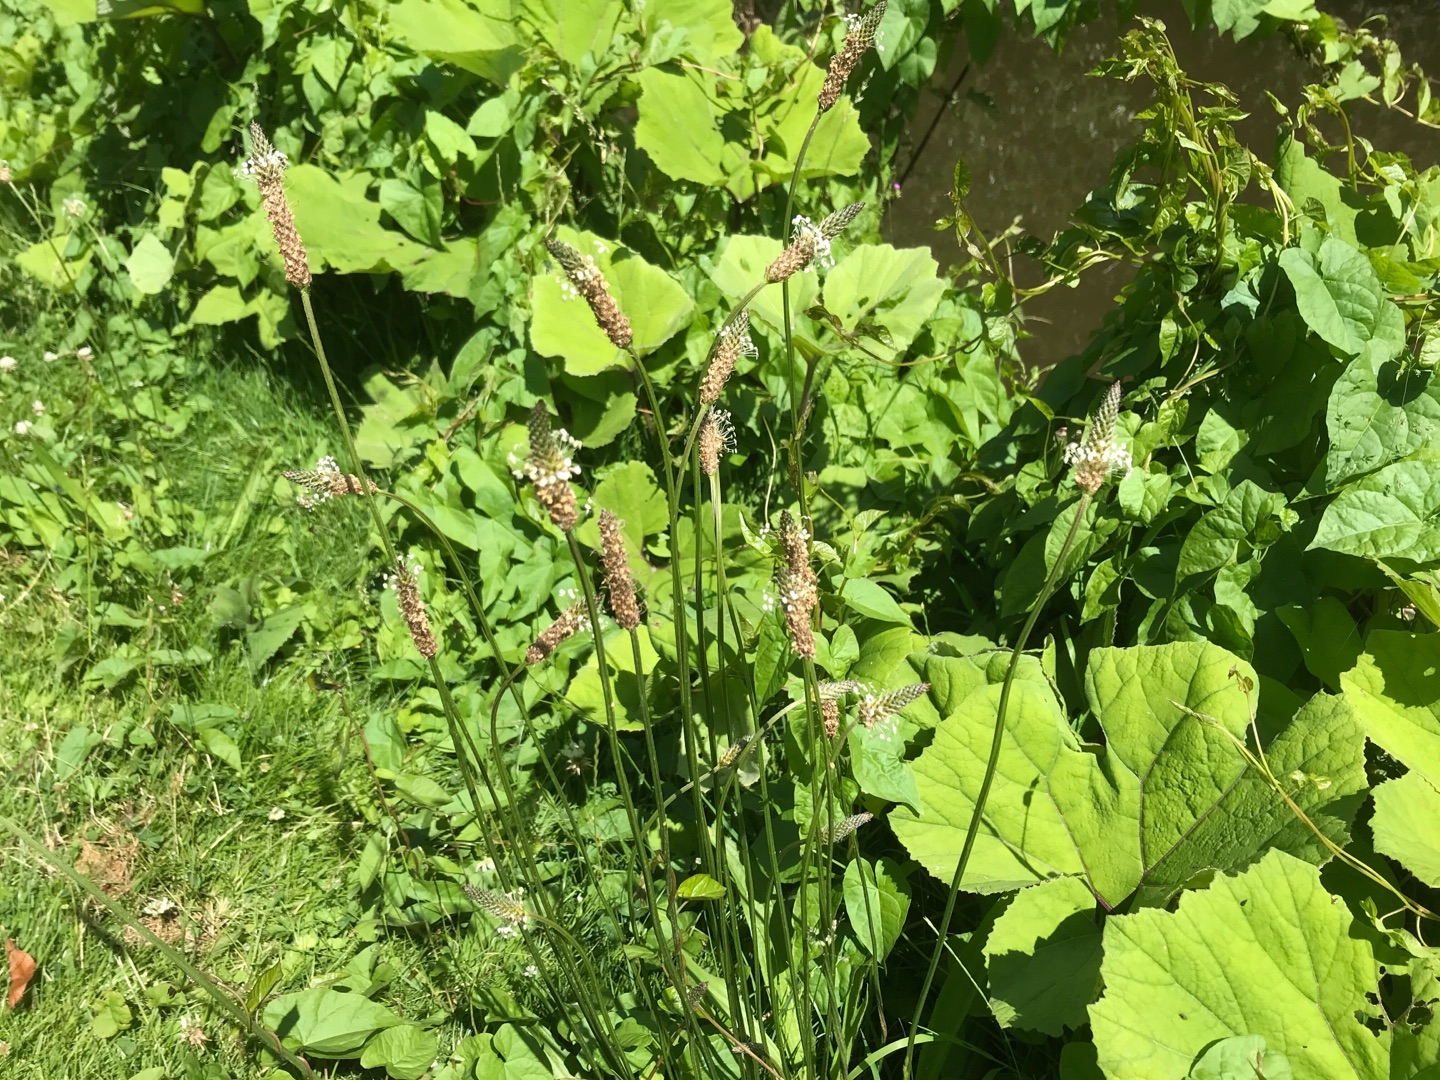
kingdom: Plantae
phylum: Tracheophyta
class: Magnoliopsida
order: Lamiales
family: Plantaginaceae
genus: Plantago
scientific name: Plantago lanceolata
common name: Lancet-vejbred
